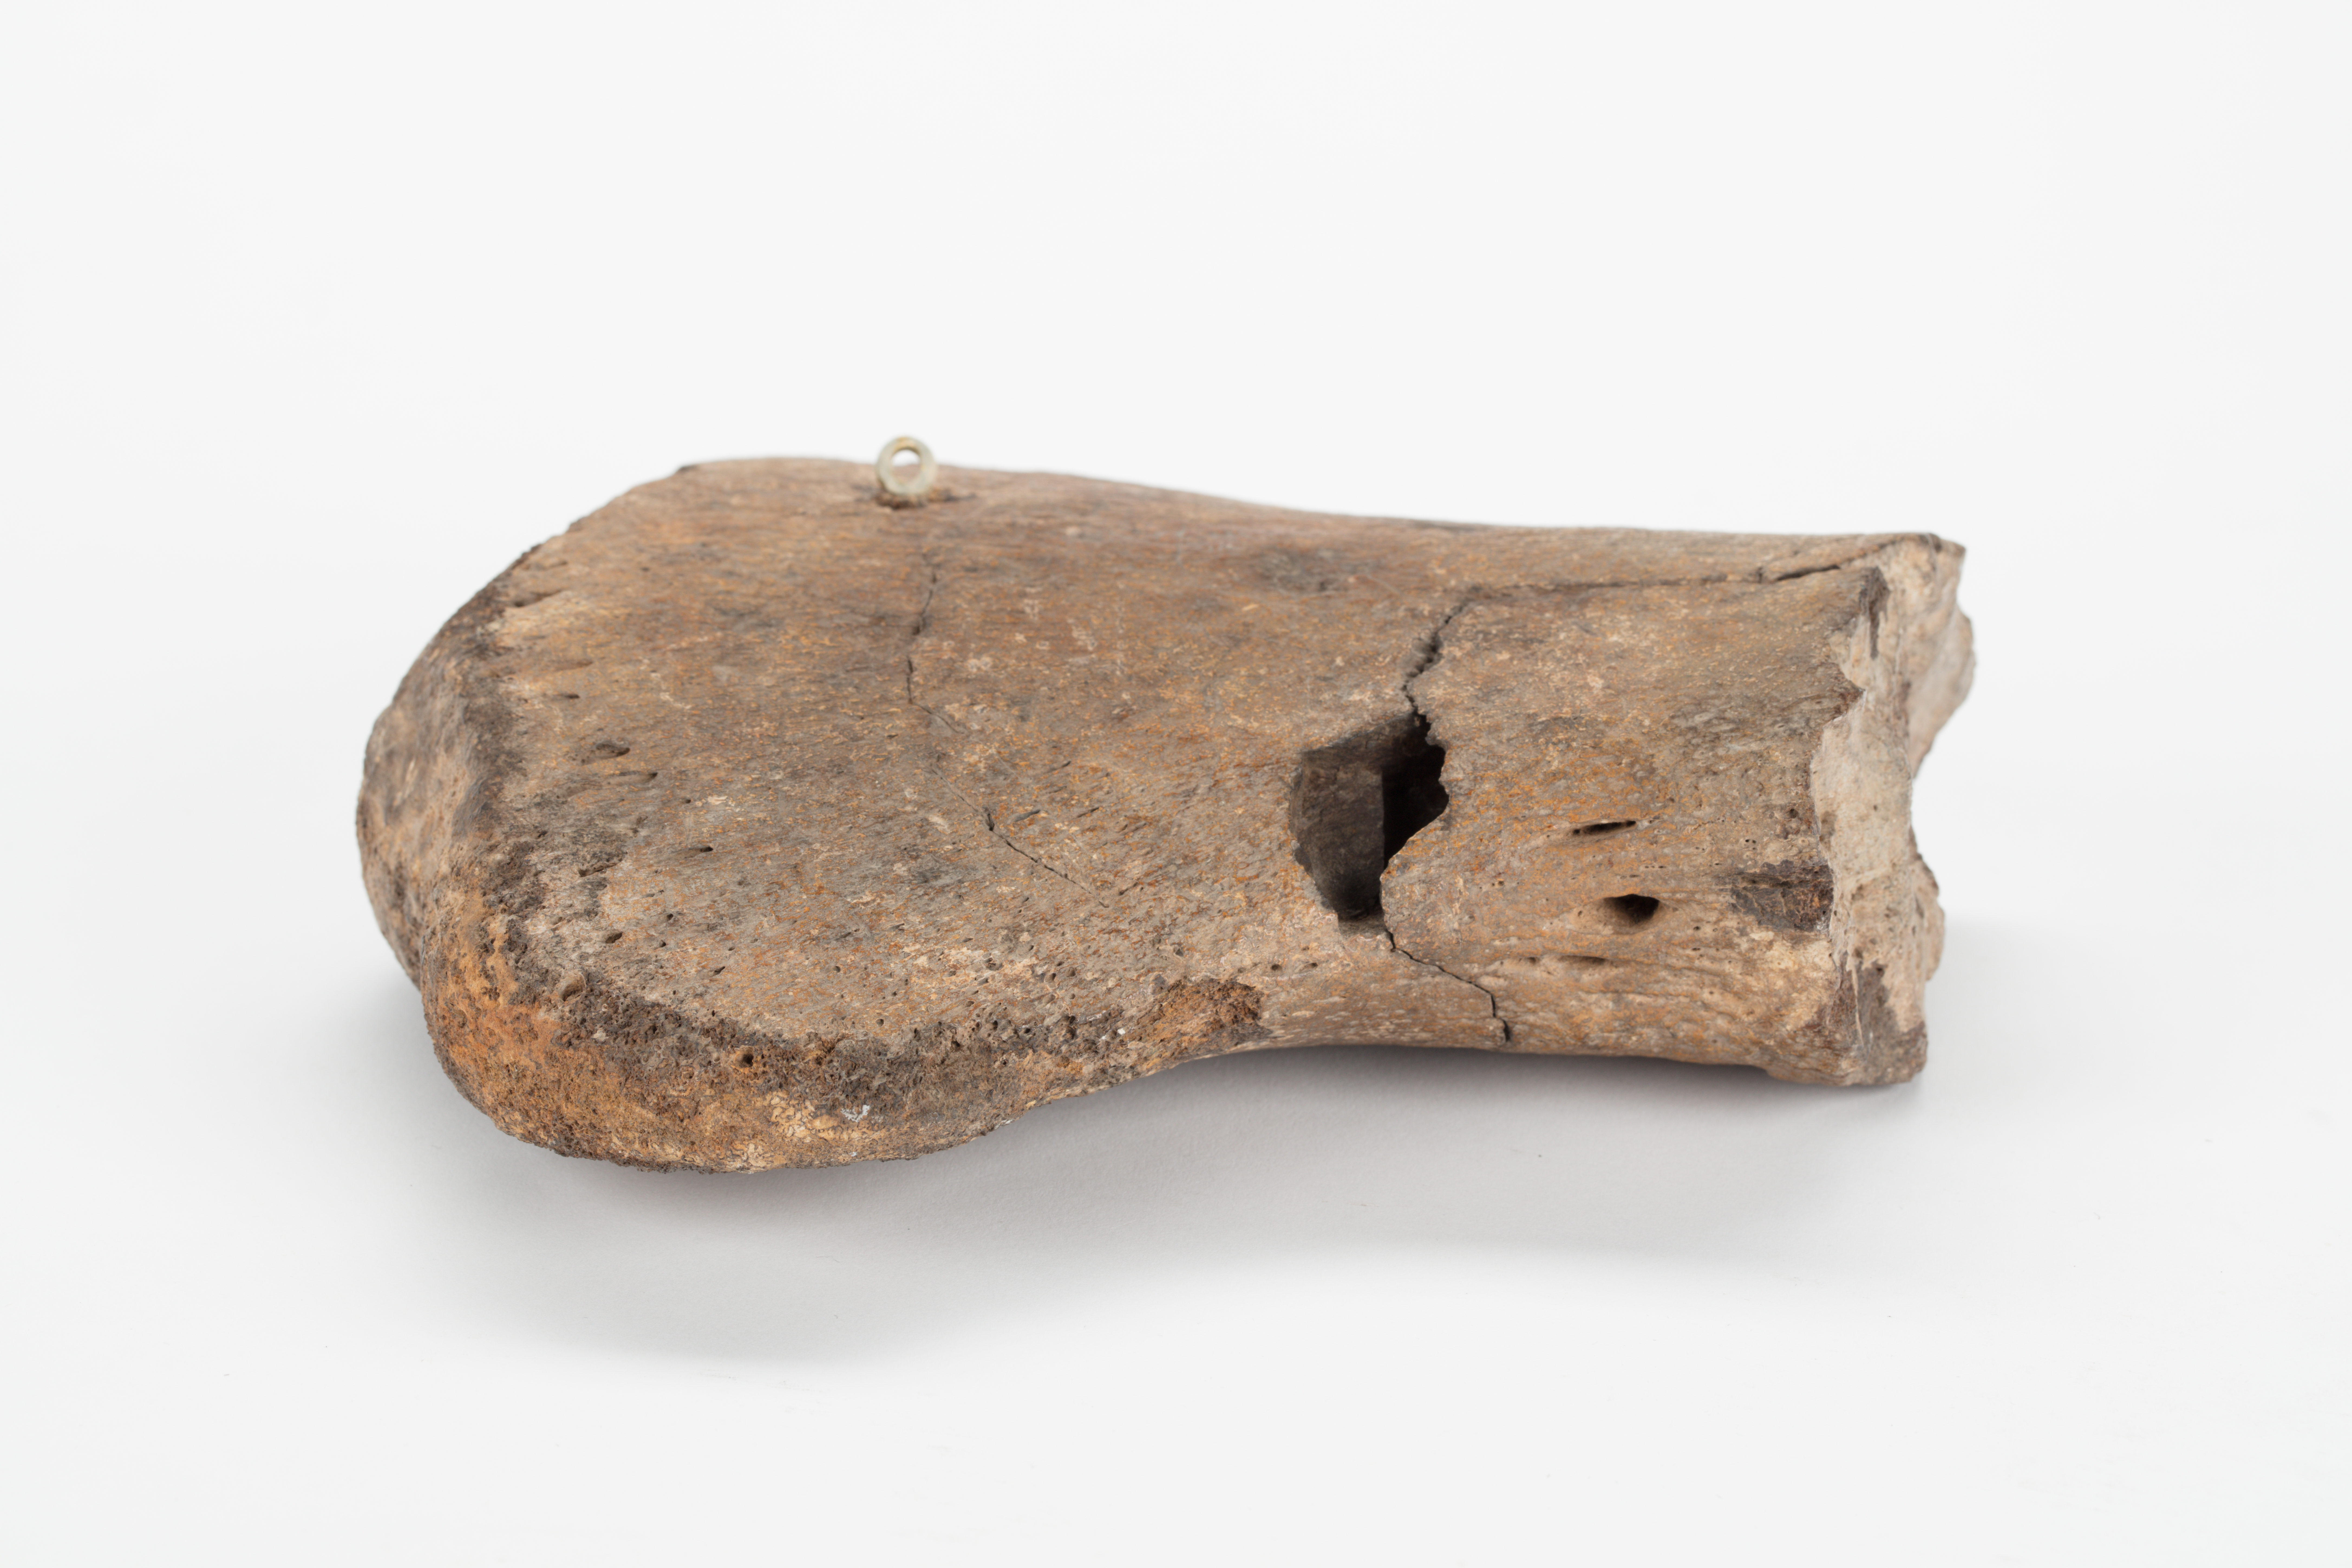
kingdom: Animalia
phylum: Chordata
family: Ichthyosauridae
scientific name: Ichthyosauridae
